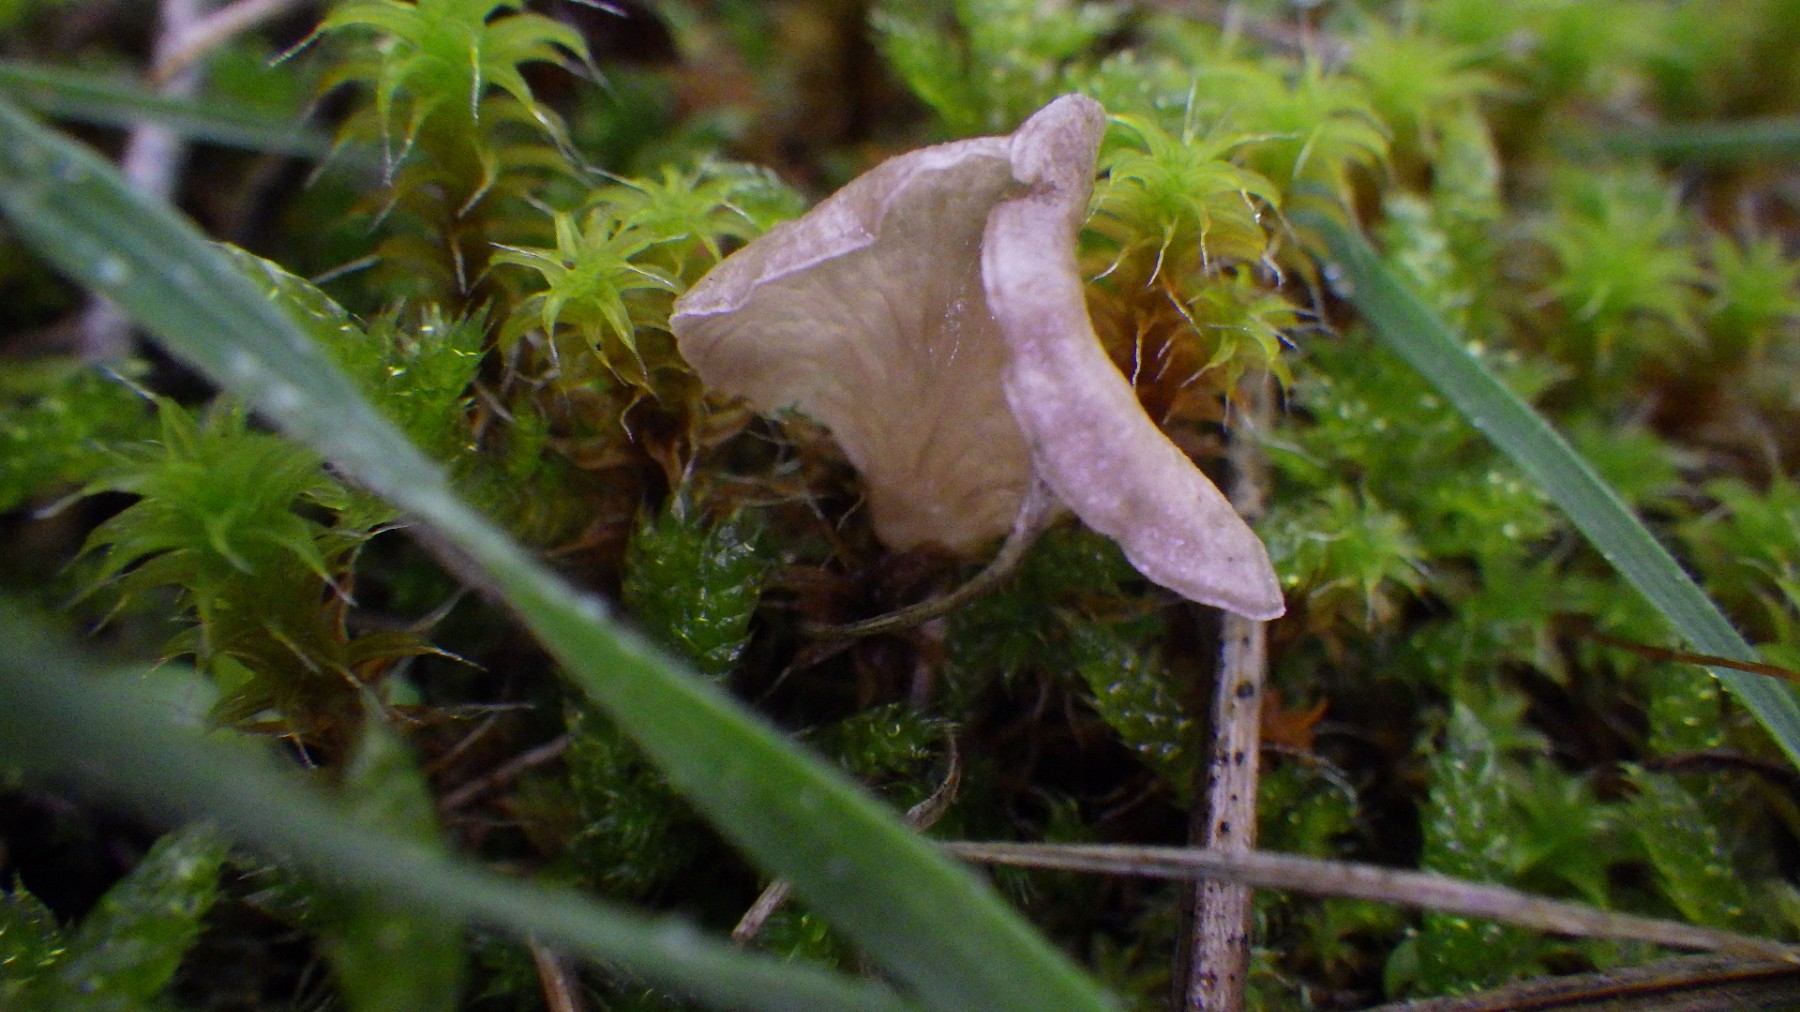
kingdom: Fungi
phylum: Basidiomycota
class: Agaricomycetes
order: Agaricales
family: Hygrophoraceae
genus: Arrhenia
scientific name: Arrhenia spathulata
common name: skæv fontænehat
